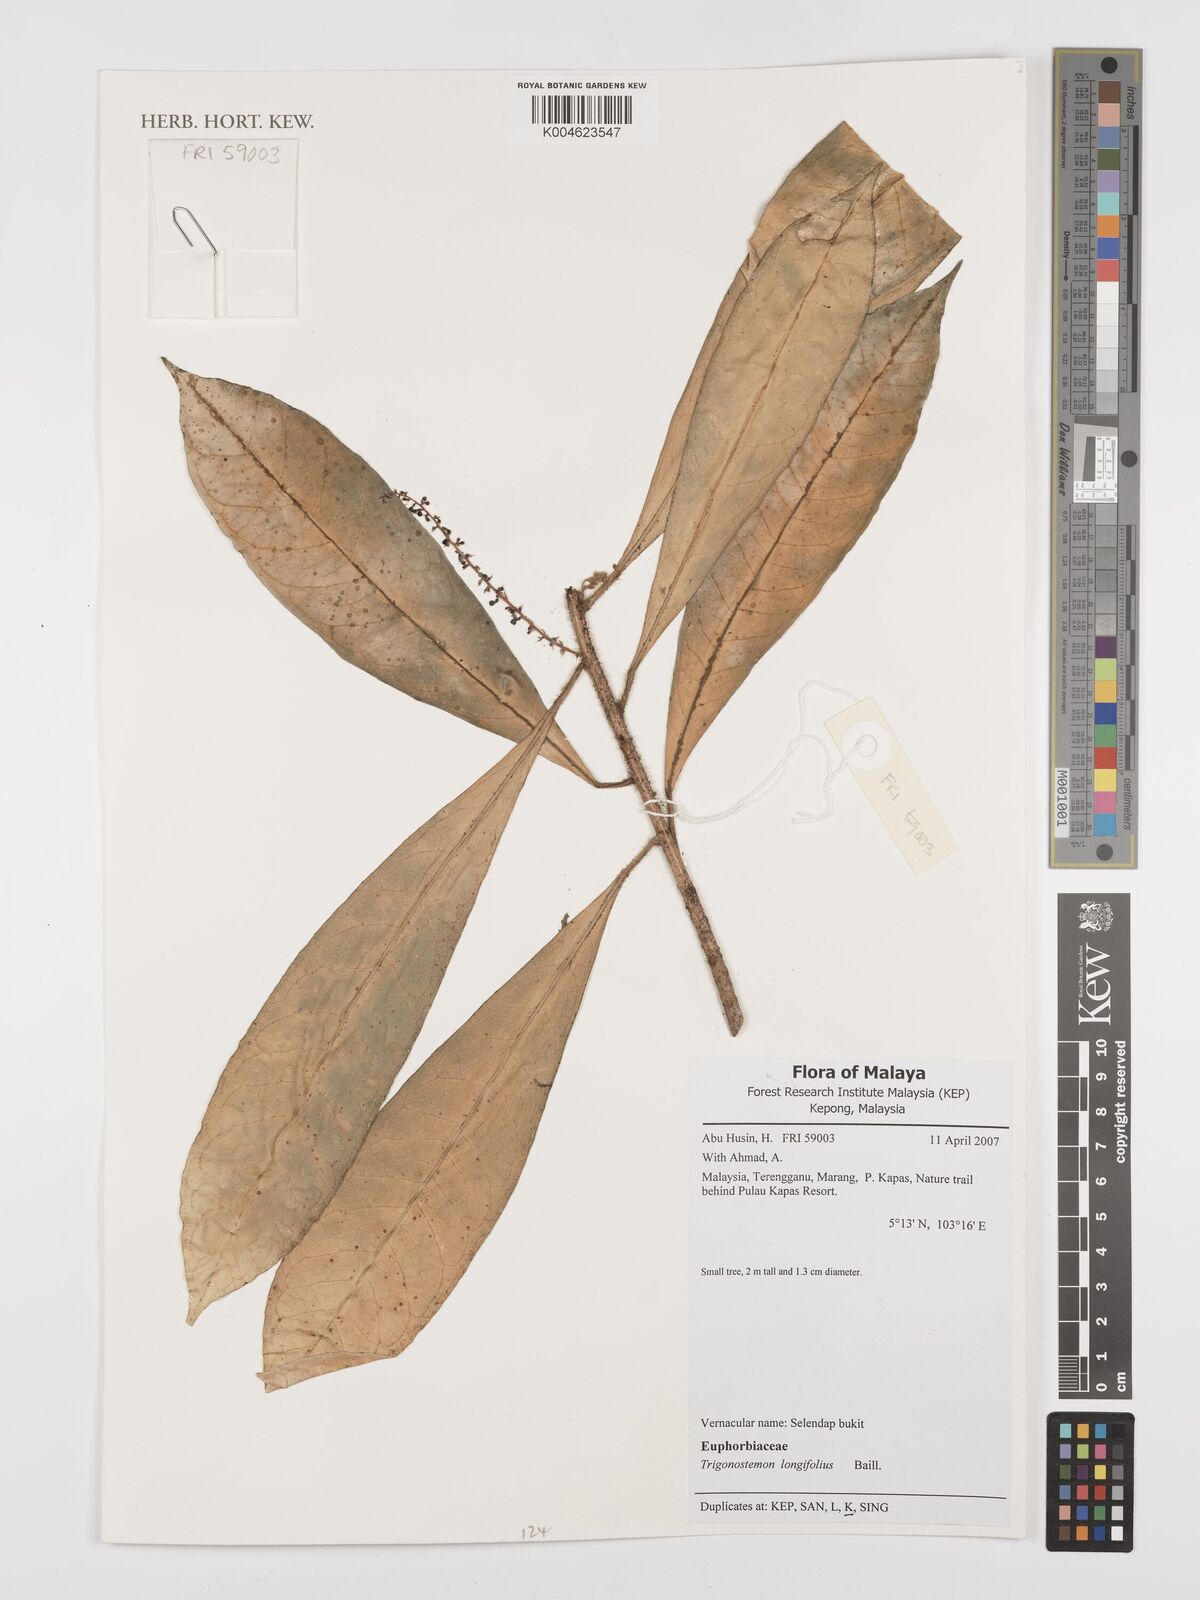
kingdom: Plantae
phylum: Tracheophyta
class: Magnoliopsida
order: Malpighiales
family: Euphorbiaceae
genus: Trigonostemon
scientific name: Trigonostemon longifolius
